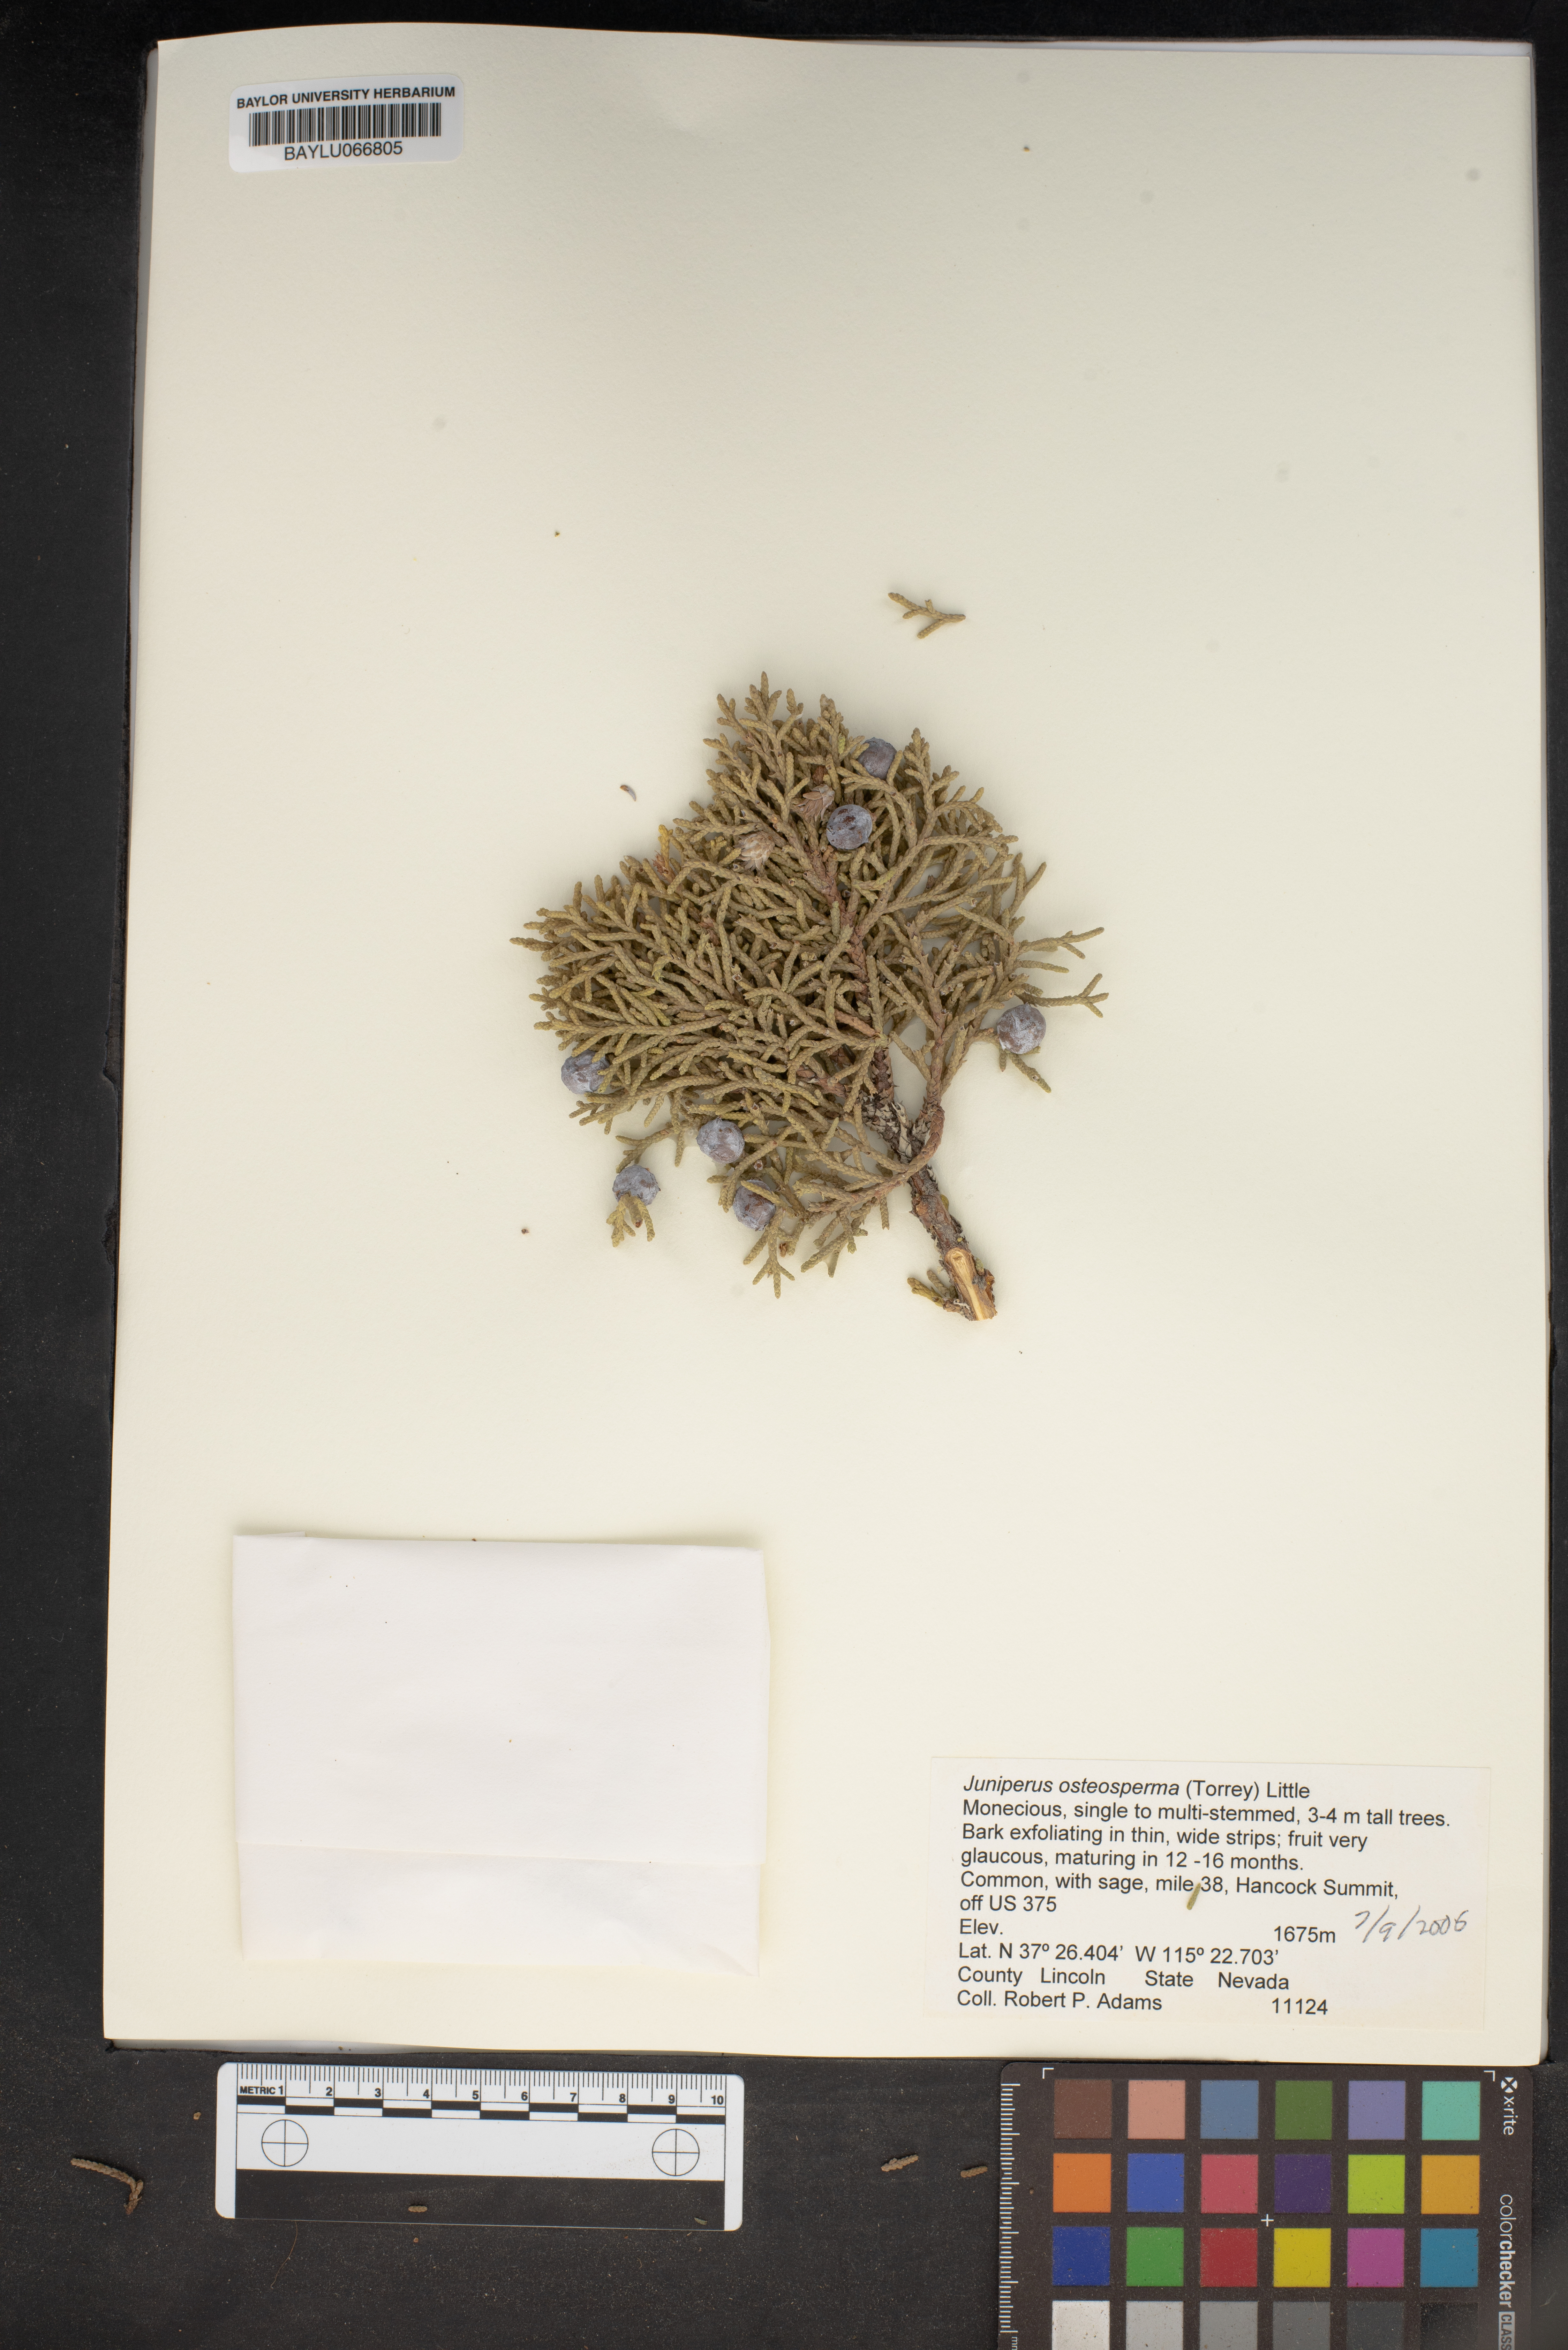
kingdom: Plantae
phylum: Tracheophyta
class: Pinopsida
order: Pinales
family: Cupressaceae
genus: Juniperus
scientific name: Juniperus osteosperma
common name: Utah juniper
